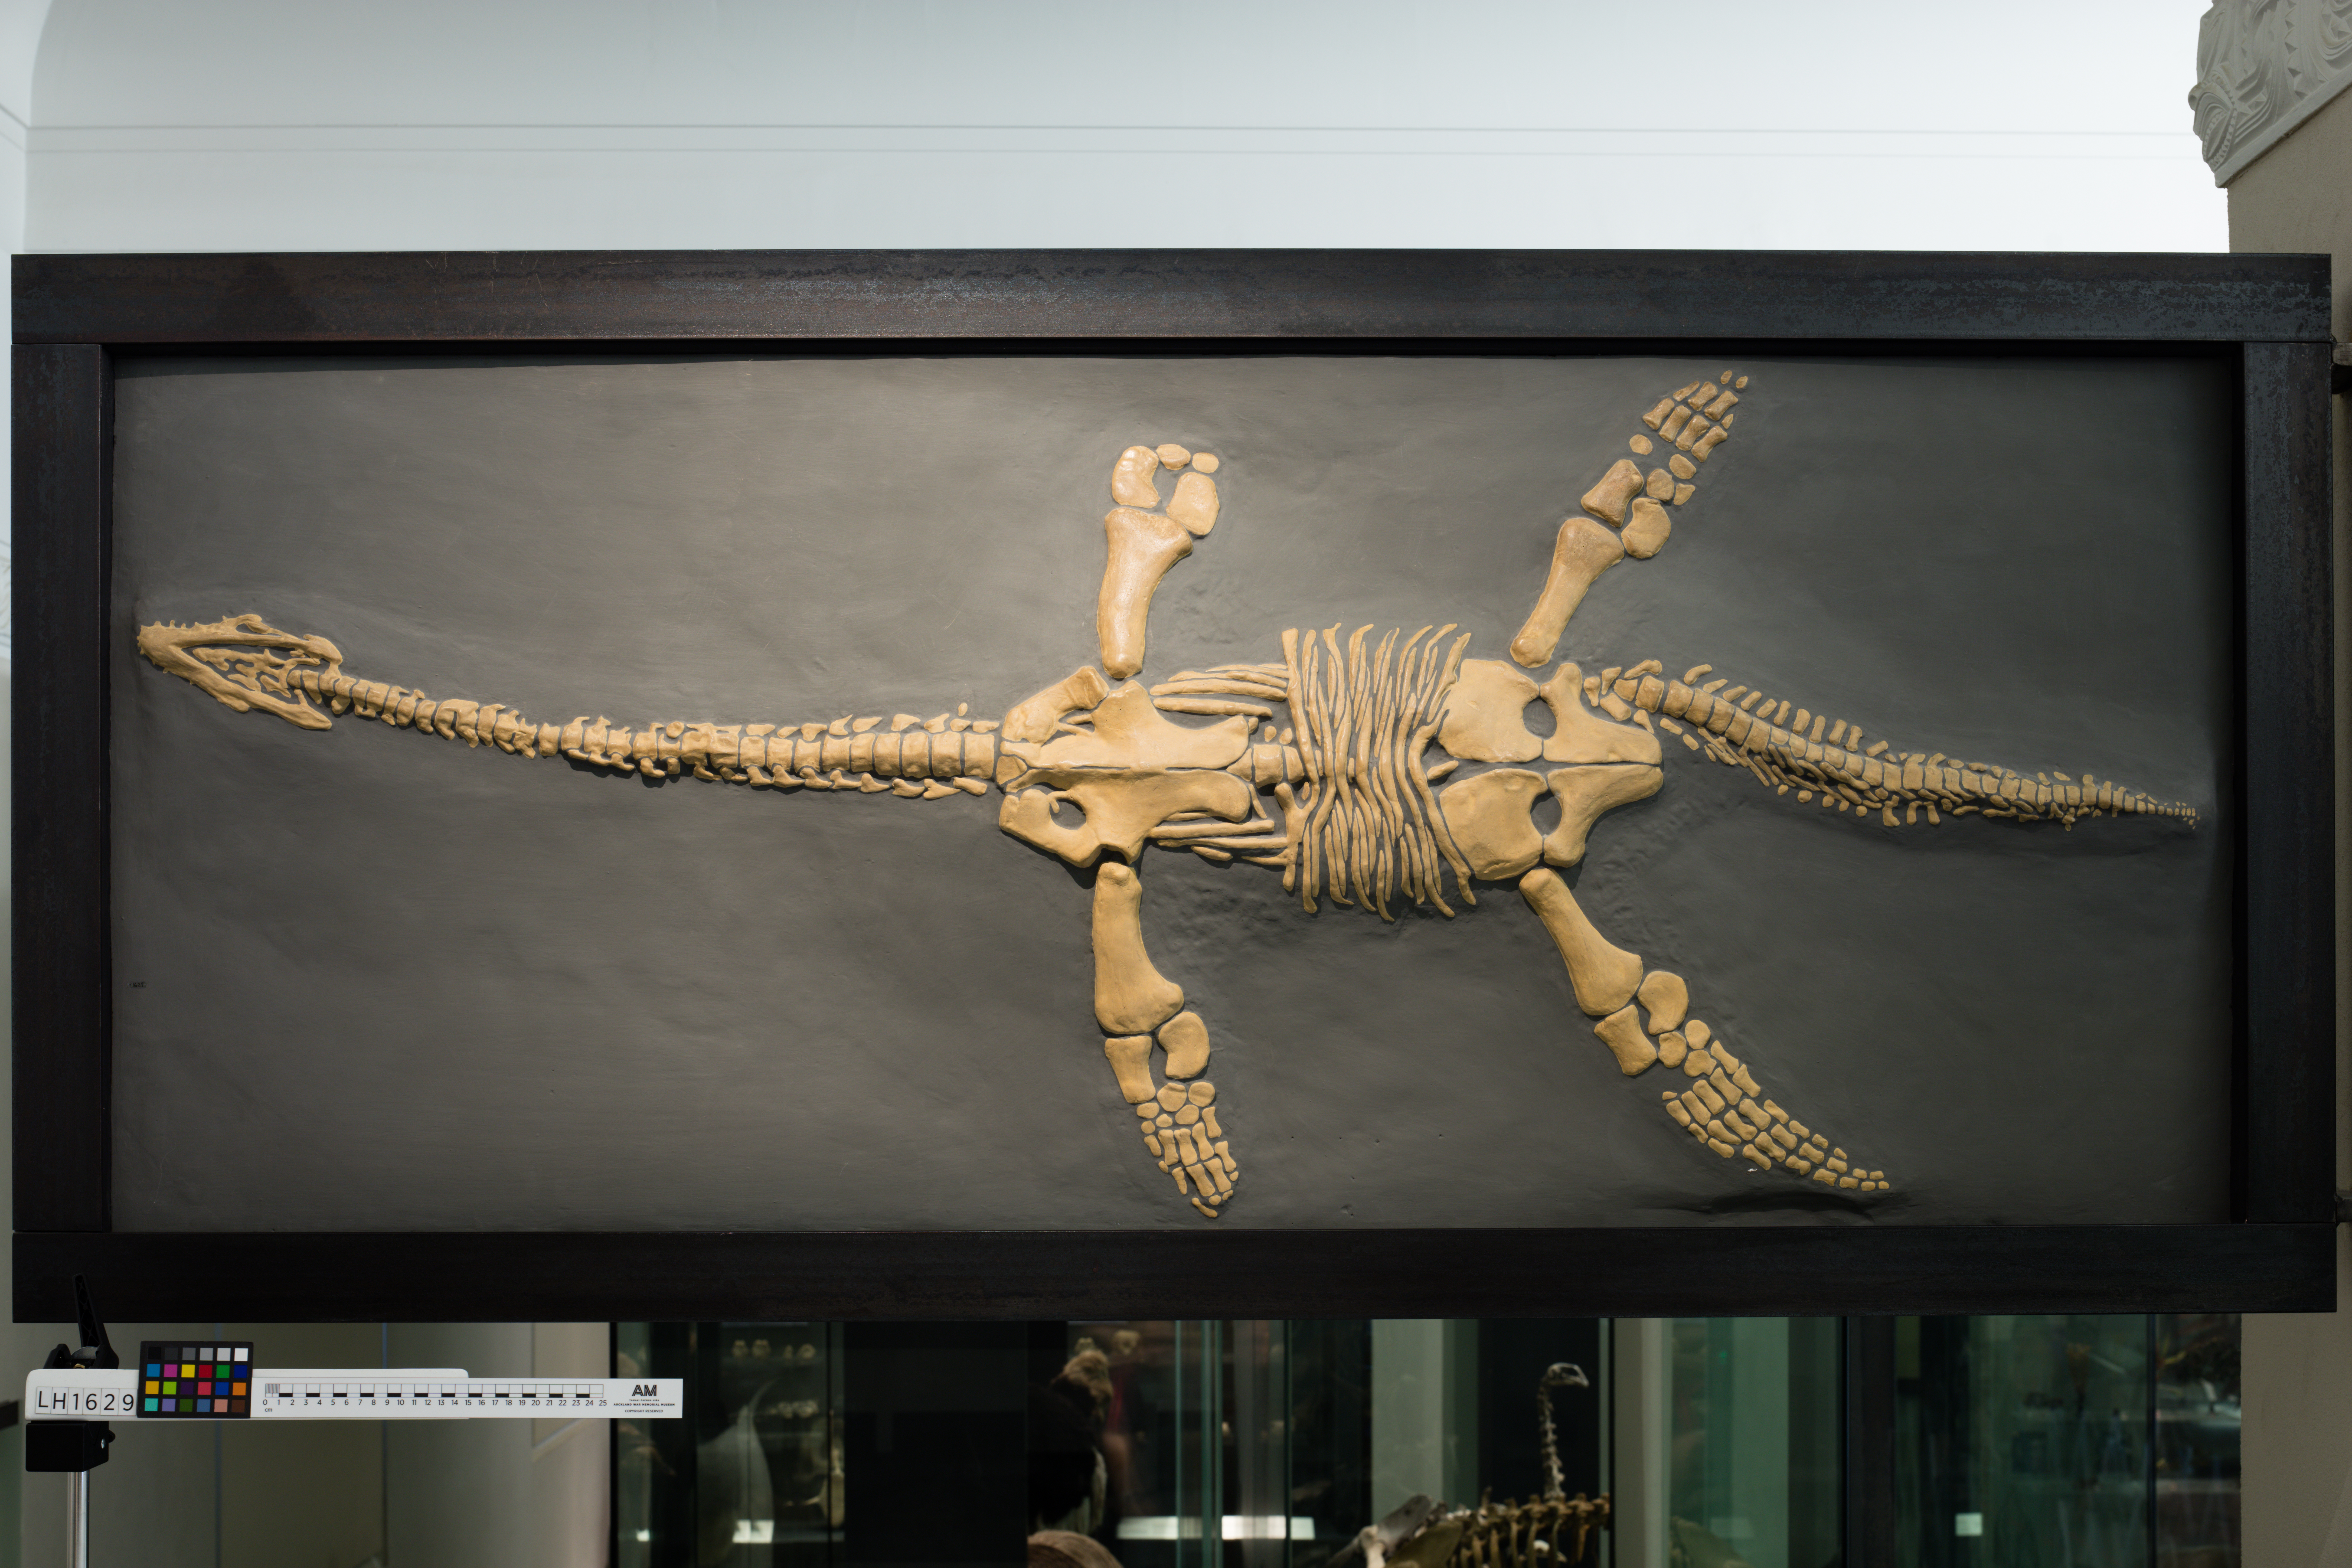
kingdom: Animalia
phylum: Chordata
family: Plesiosauridae
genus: Plesiosaurus
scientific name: Plesiosaurus dolichodeirus
